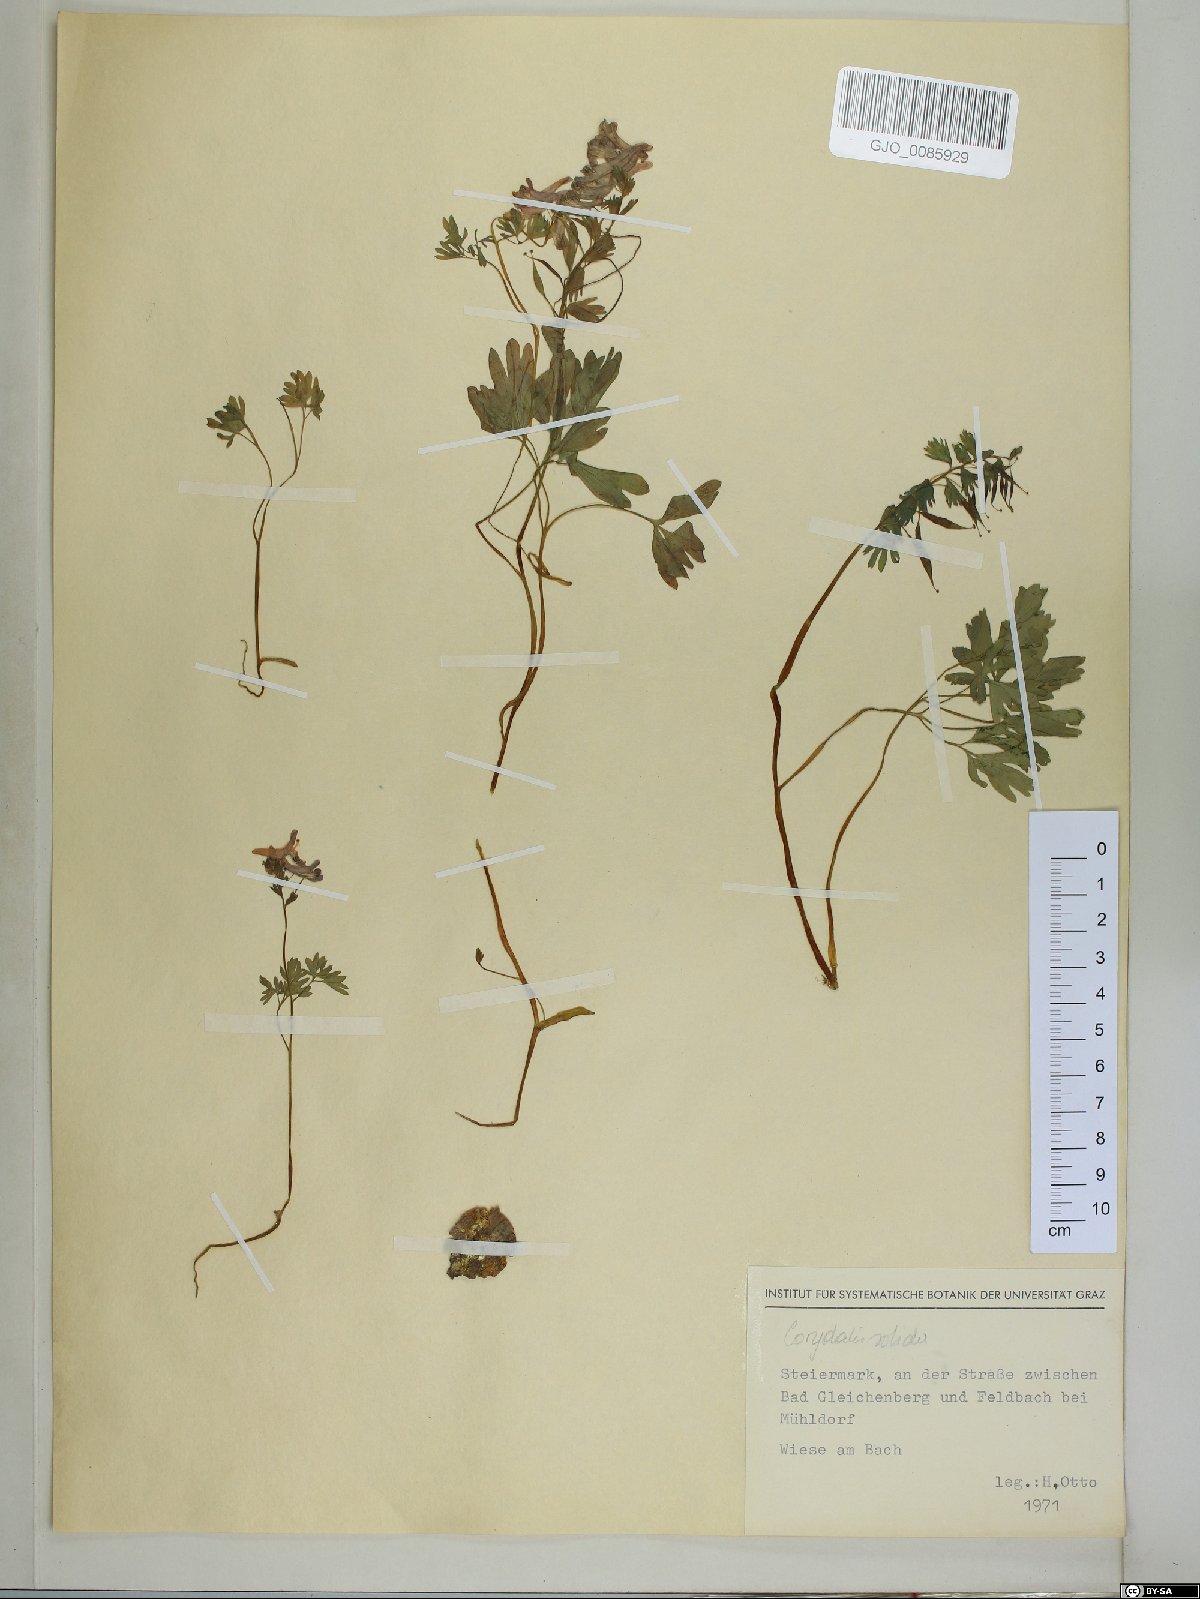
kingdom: Plantae
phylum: Tracheophyta
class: Magnoliopsida
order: Ranunculales
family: Papaveraceae
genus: Corydalis
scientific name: Corydalis solida
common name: Bird-in-a-bush
